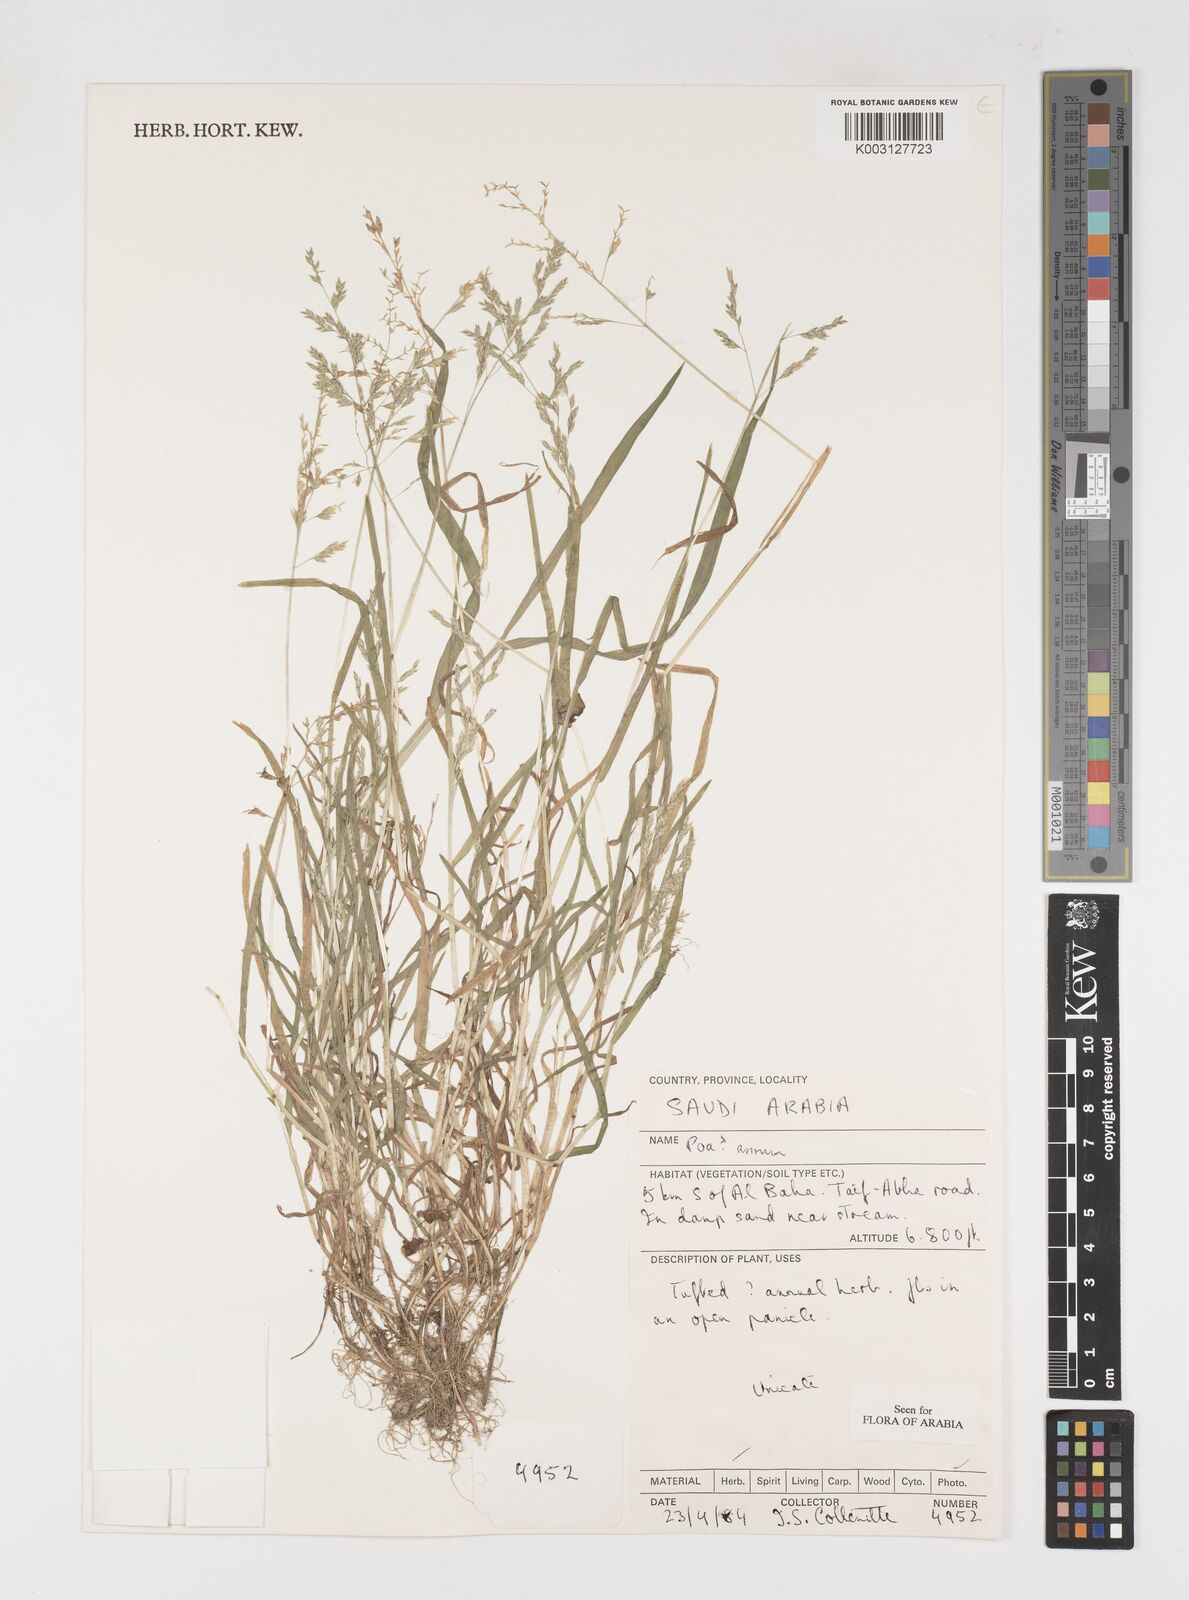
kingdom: Plantae
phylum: Tracheophyta
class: Liliopsida
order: Poales
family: Poaceae
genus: Poa
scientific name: Poa annua
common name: Annual bluegrass
